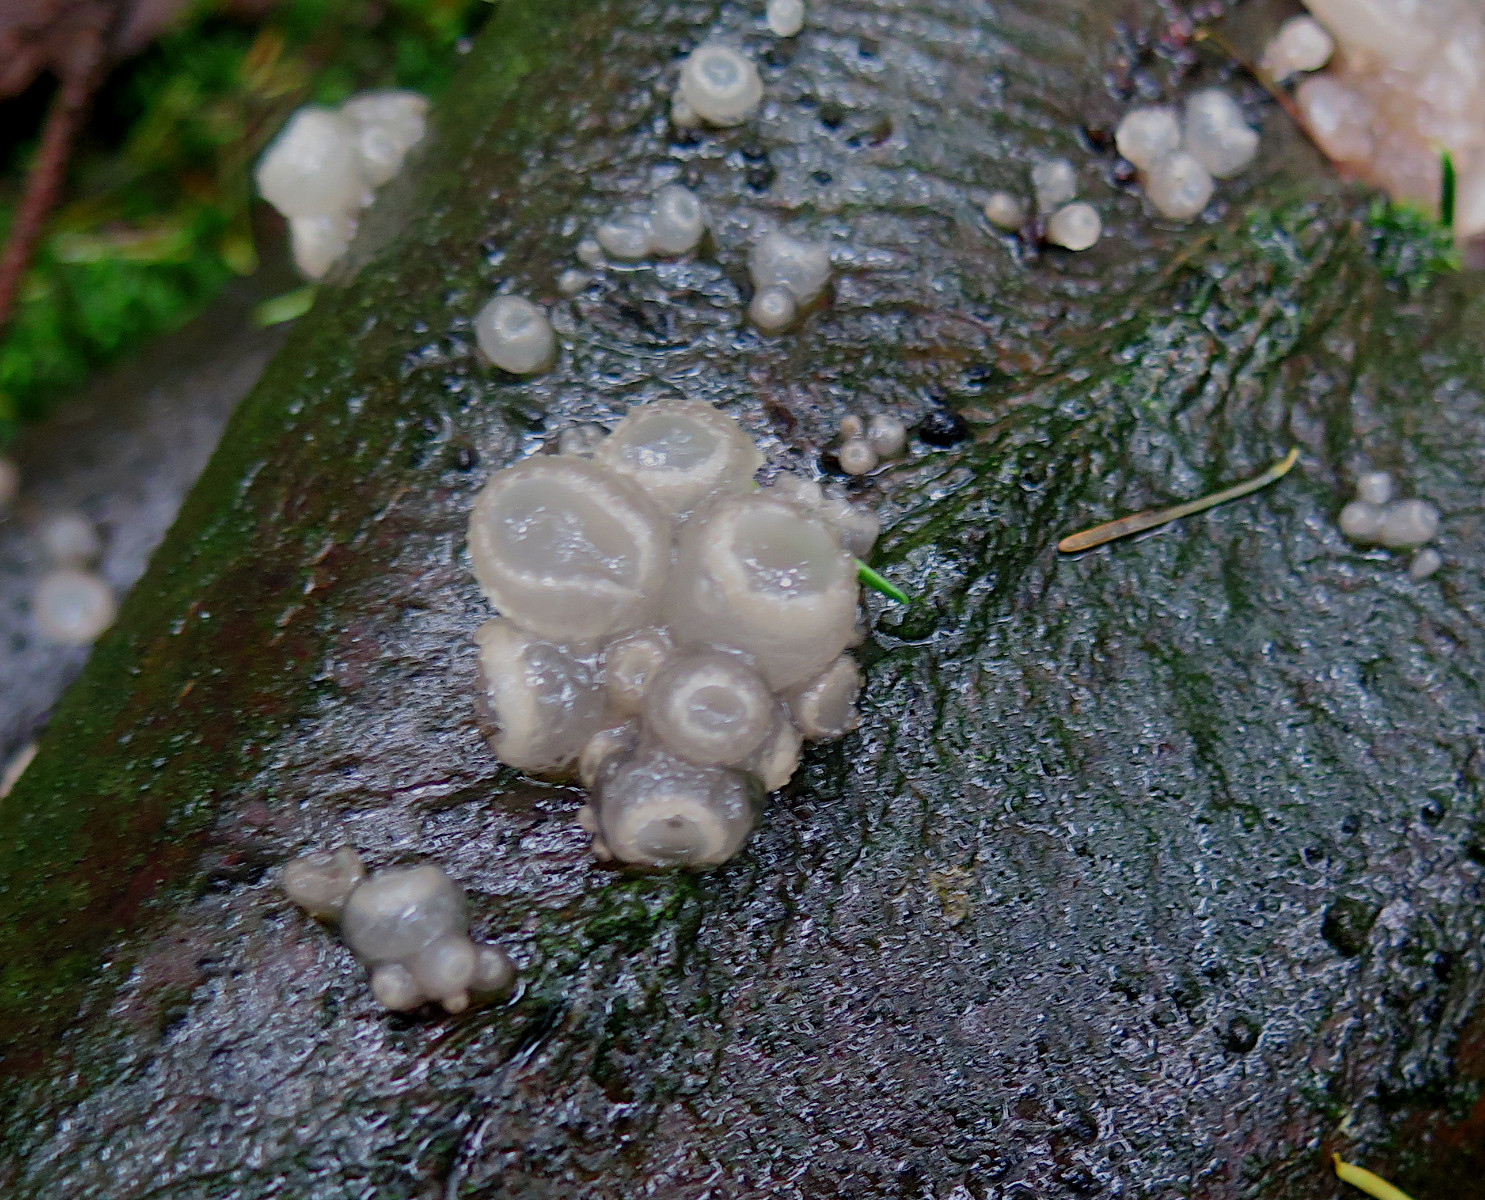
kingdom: Fungi
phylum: Ascomycota
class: Leotiomycetes
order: Helotiales
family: Gelatinodiscaceae
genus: Neobulgaria
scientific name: Neobulgaria pura
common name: bleg bævreskive
